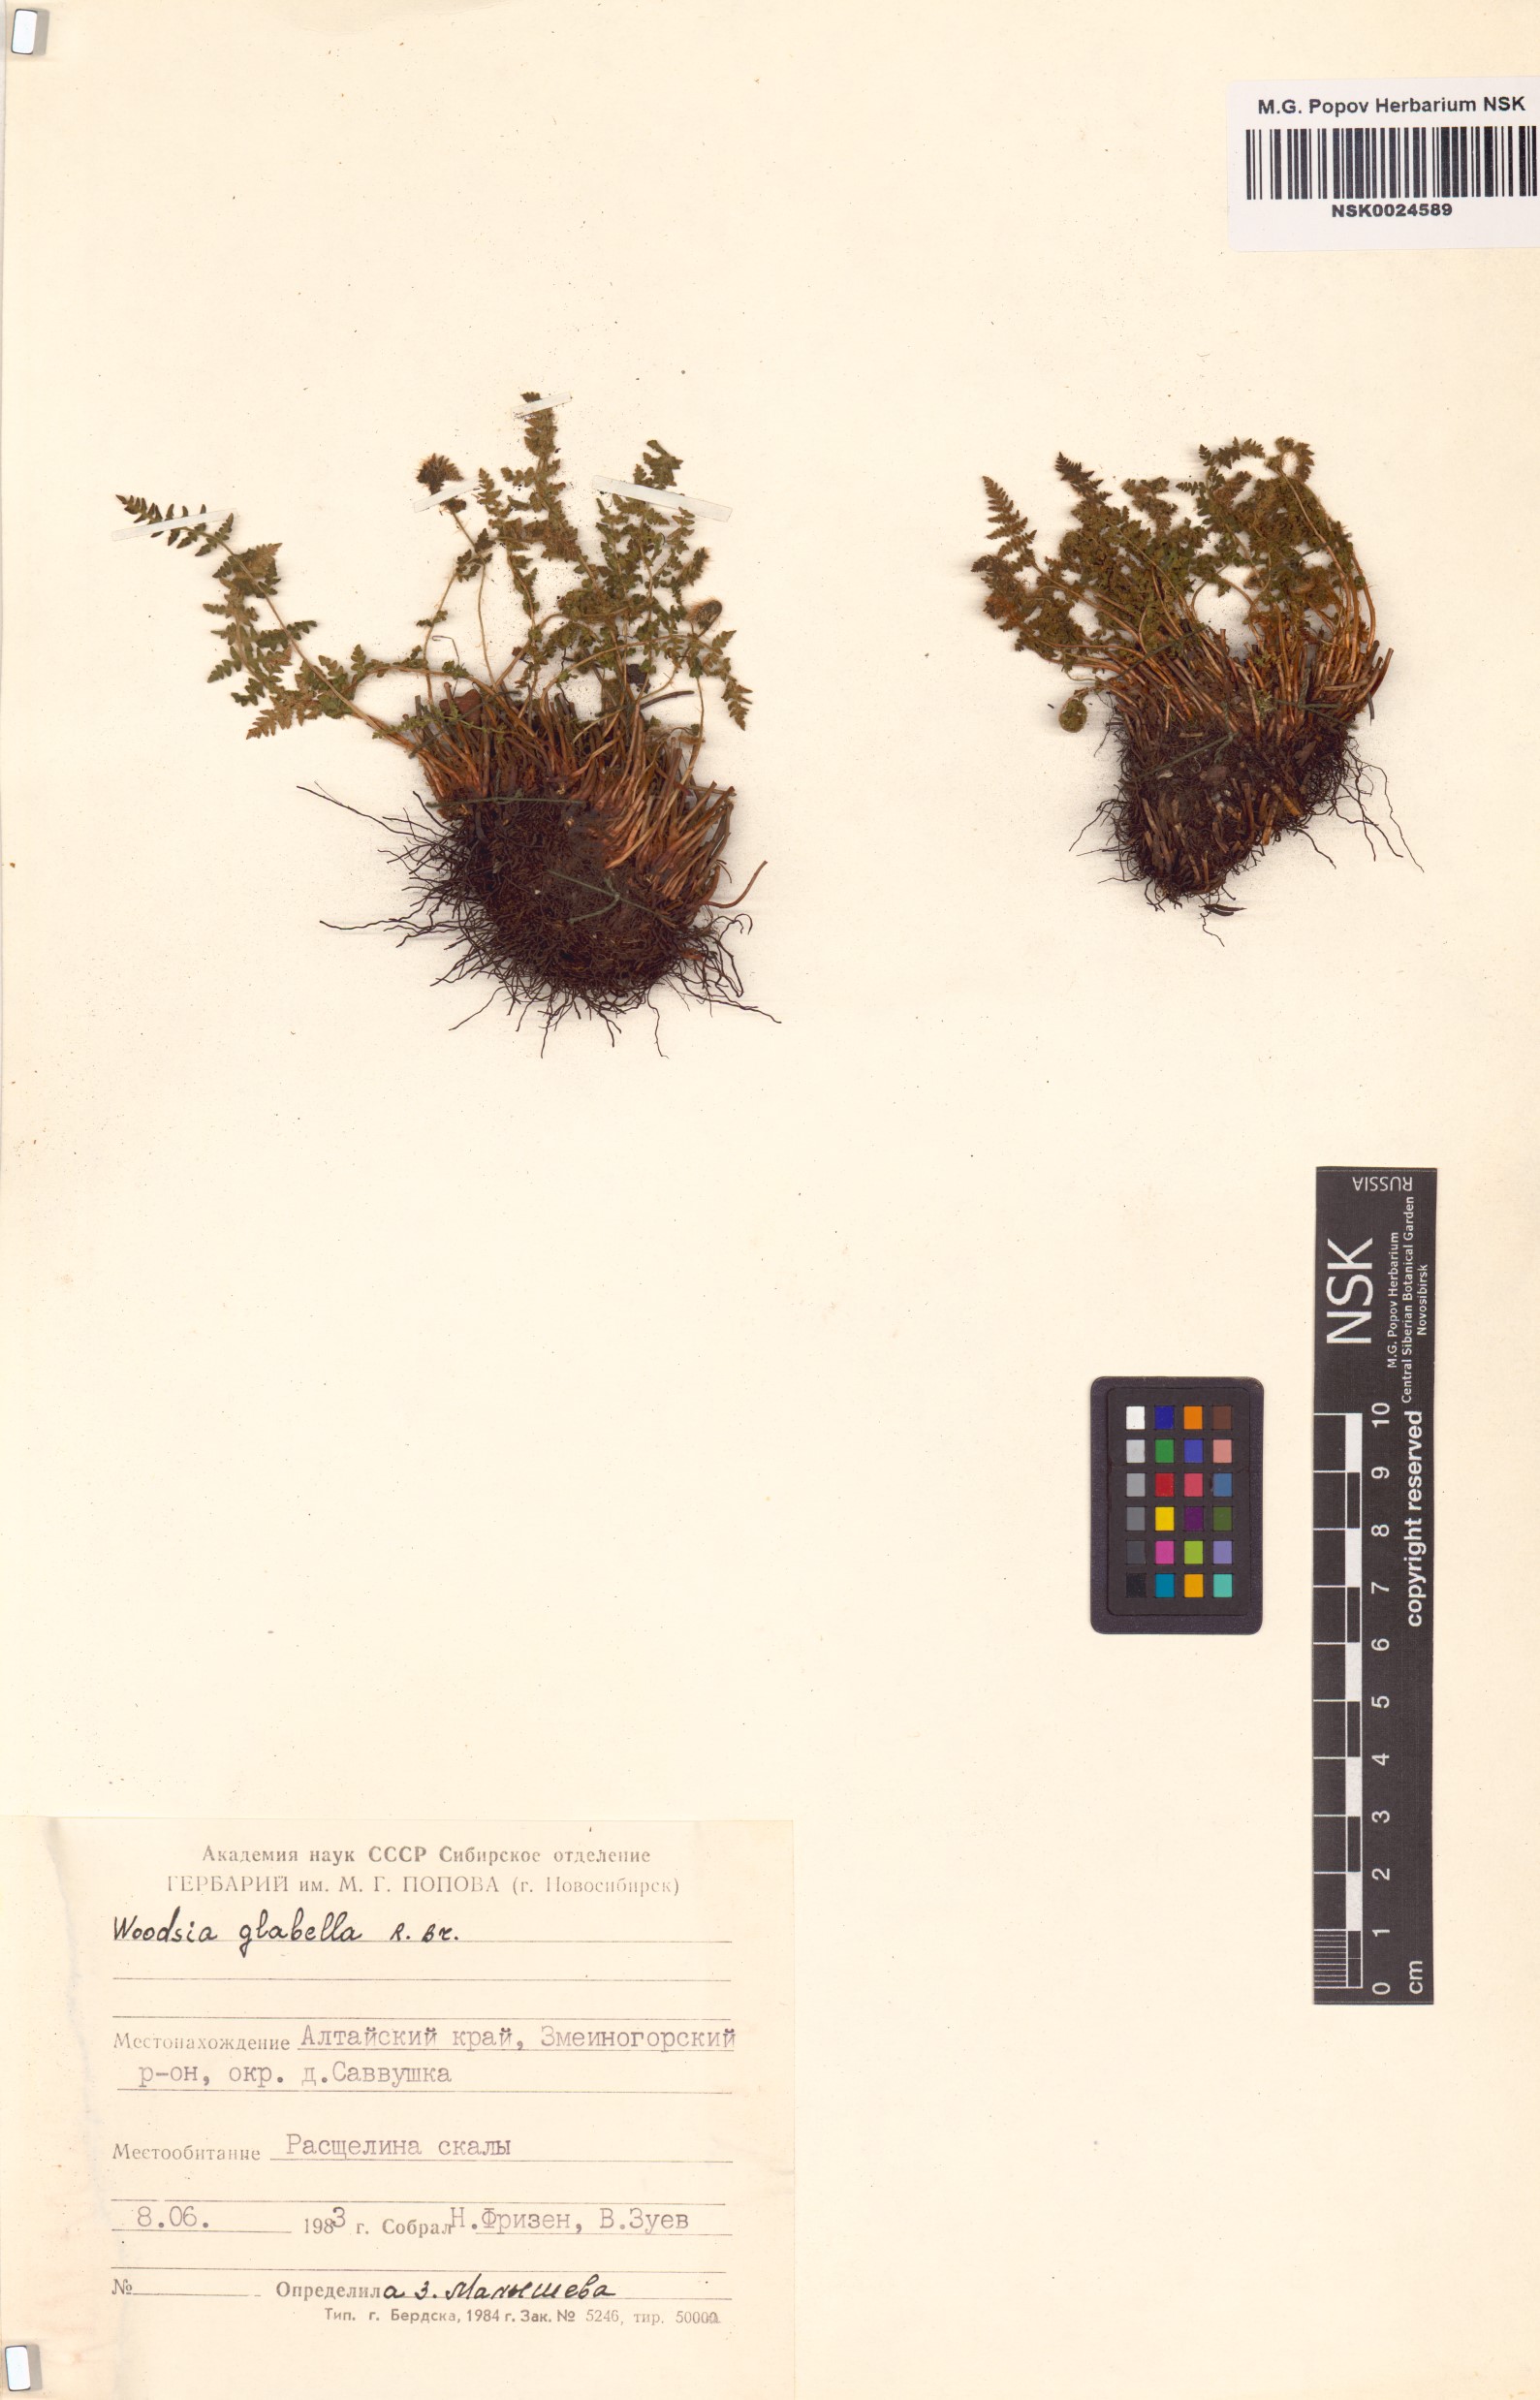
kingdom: Plantae
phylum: Tracheophyta
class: Polypodiopsida
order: Polypodiales
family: Woodsiaceae
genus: Woodsia
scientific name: Woodsia glabella
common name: Smooth woodsia
